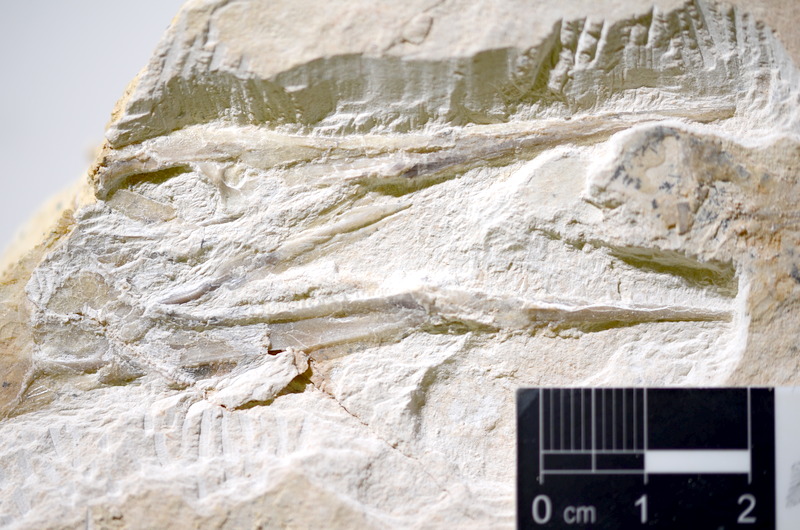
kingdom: Animalia
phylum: Chordata
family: Aspidorhynchidae
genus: Belonostomus
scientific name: Belonostomus
